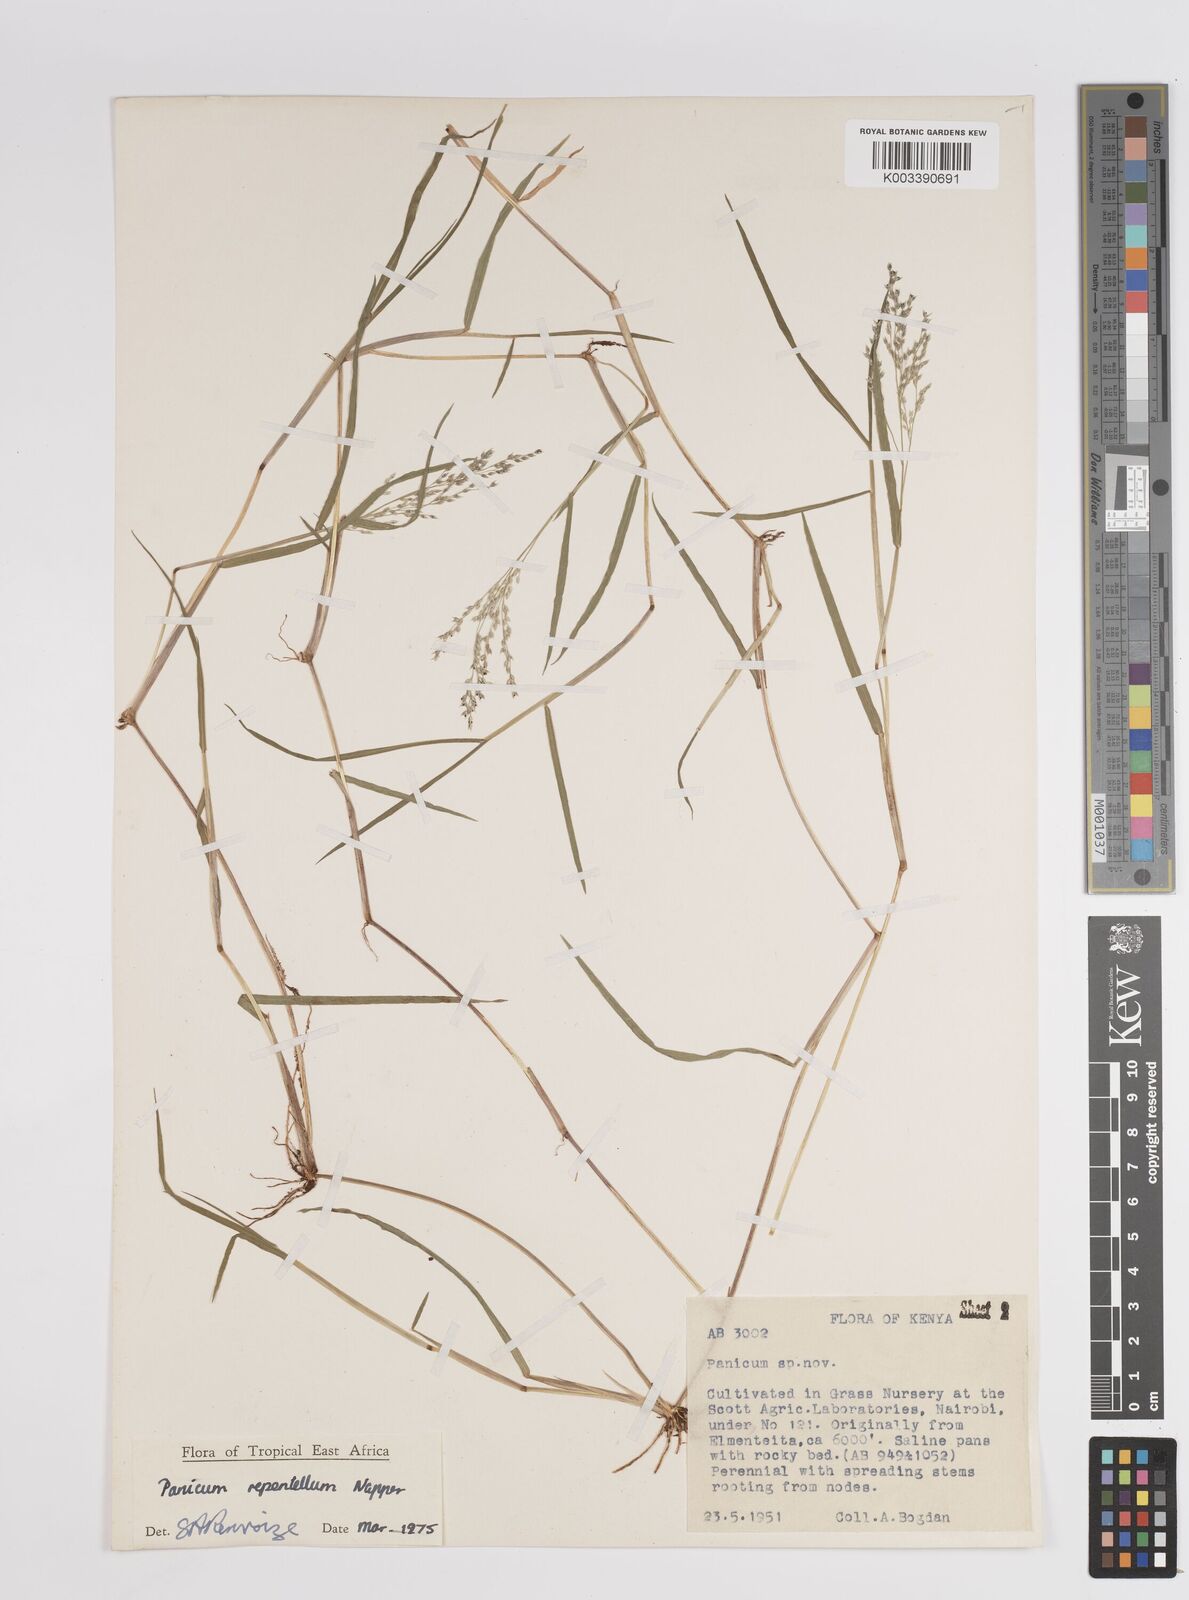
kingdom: Plantae
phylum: Tracheophyta
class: Liliopsida
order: Poales
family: Poaceae
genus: Panicum
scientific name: Panicum hygrocharis
